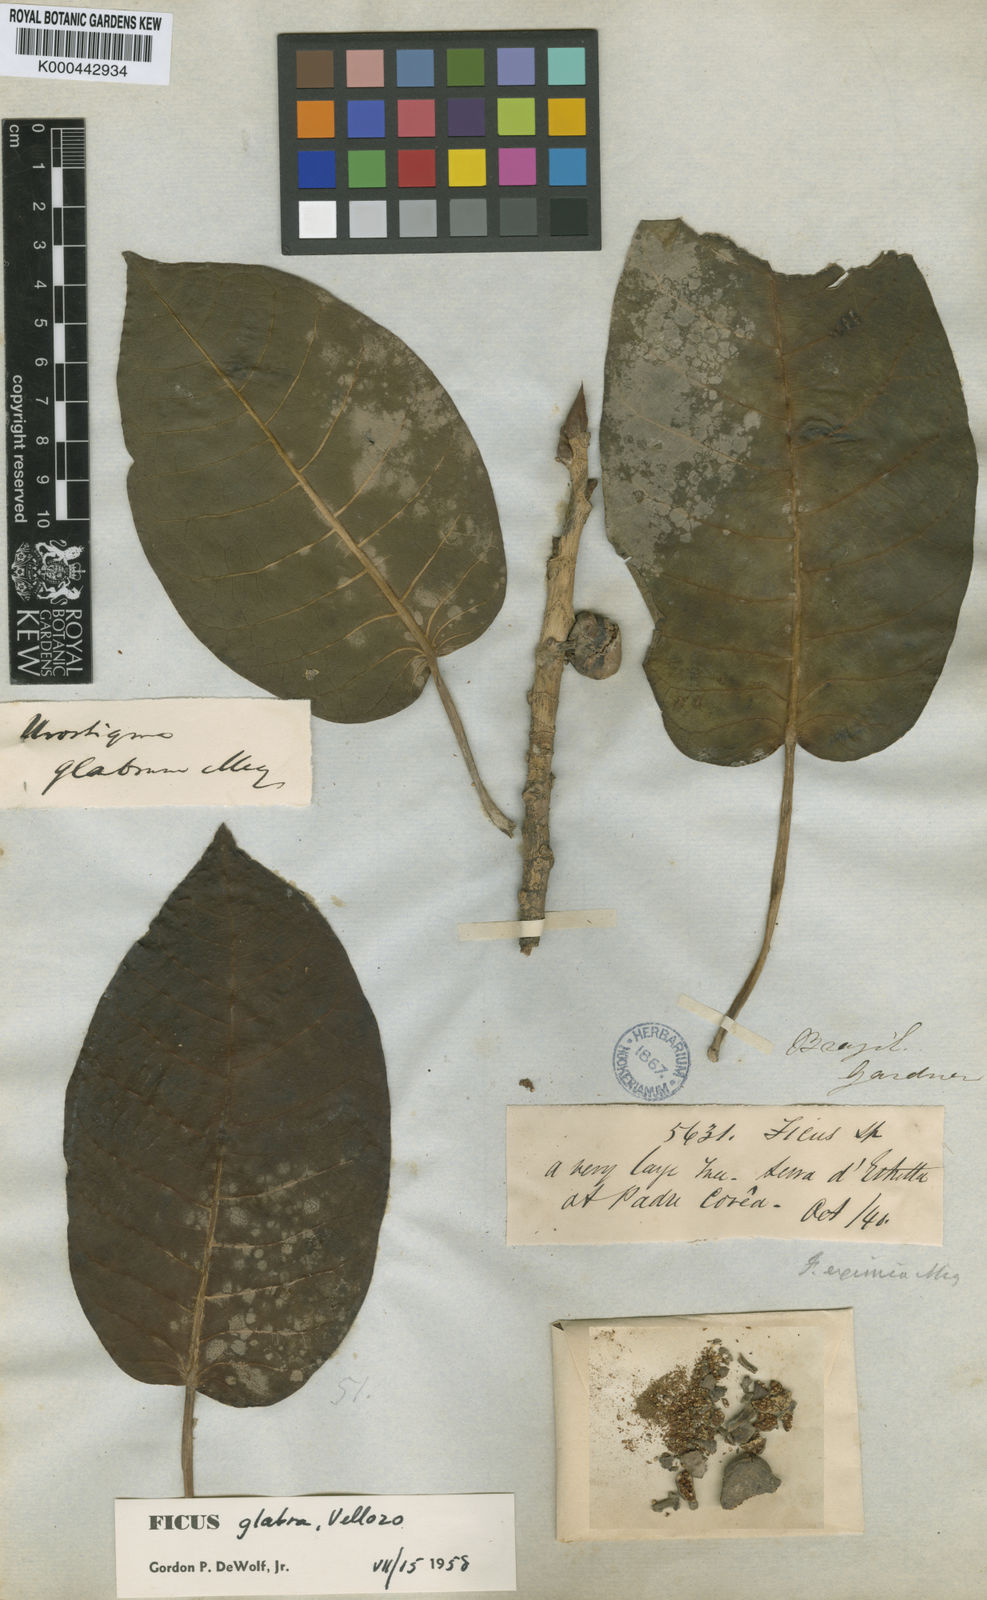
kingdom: Plantae
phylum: Tracheophyta
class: Magnoliopsida
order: Rosales
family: Moraceae
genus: Ficus
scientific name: Ficus eximia
